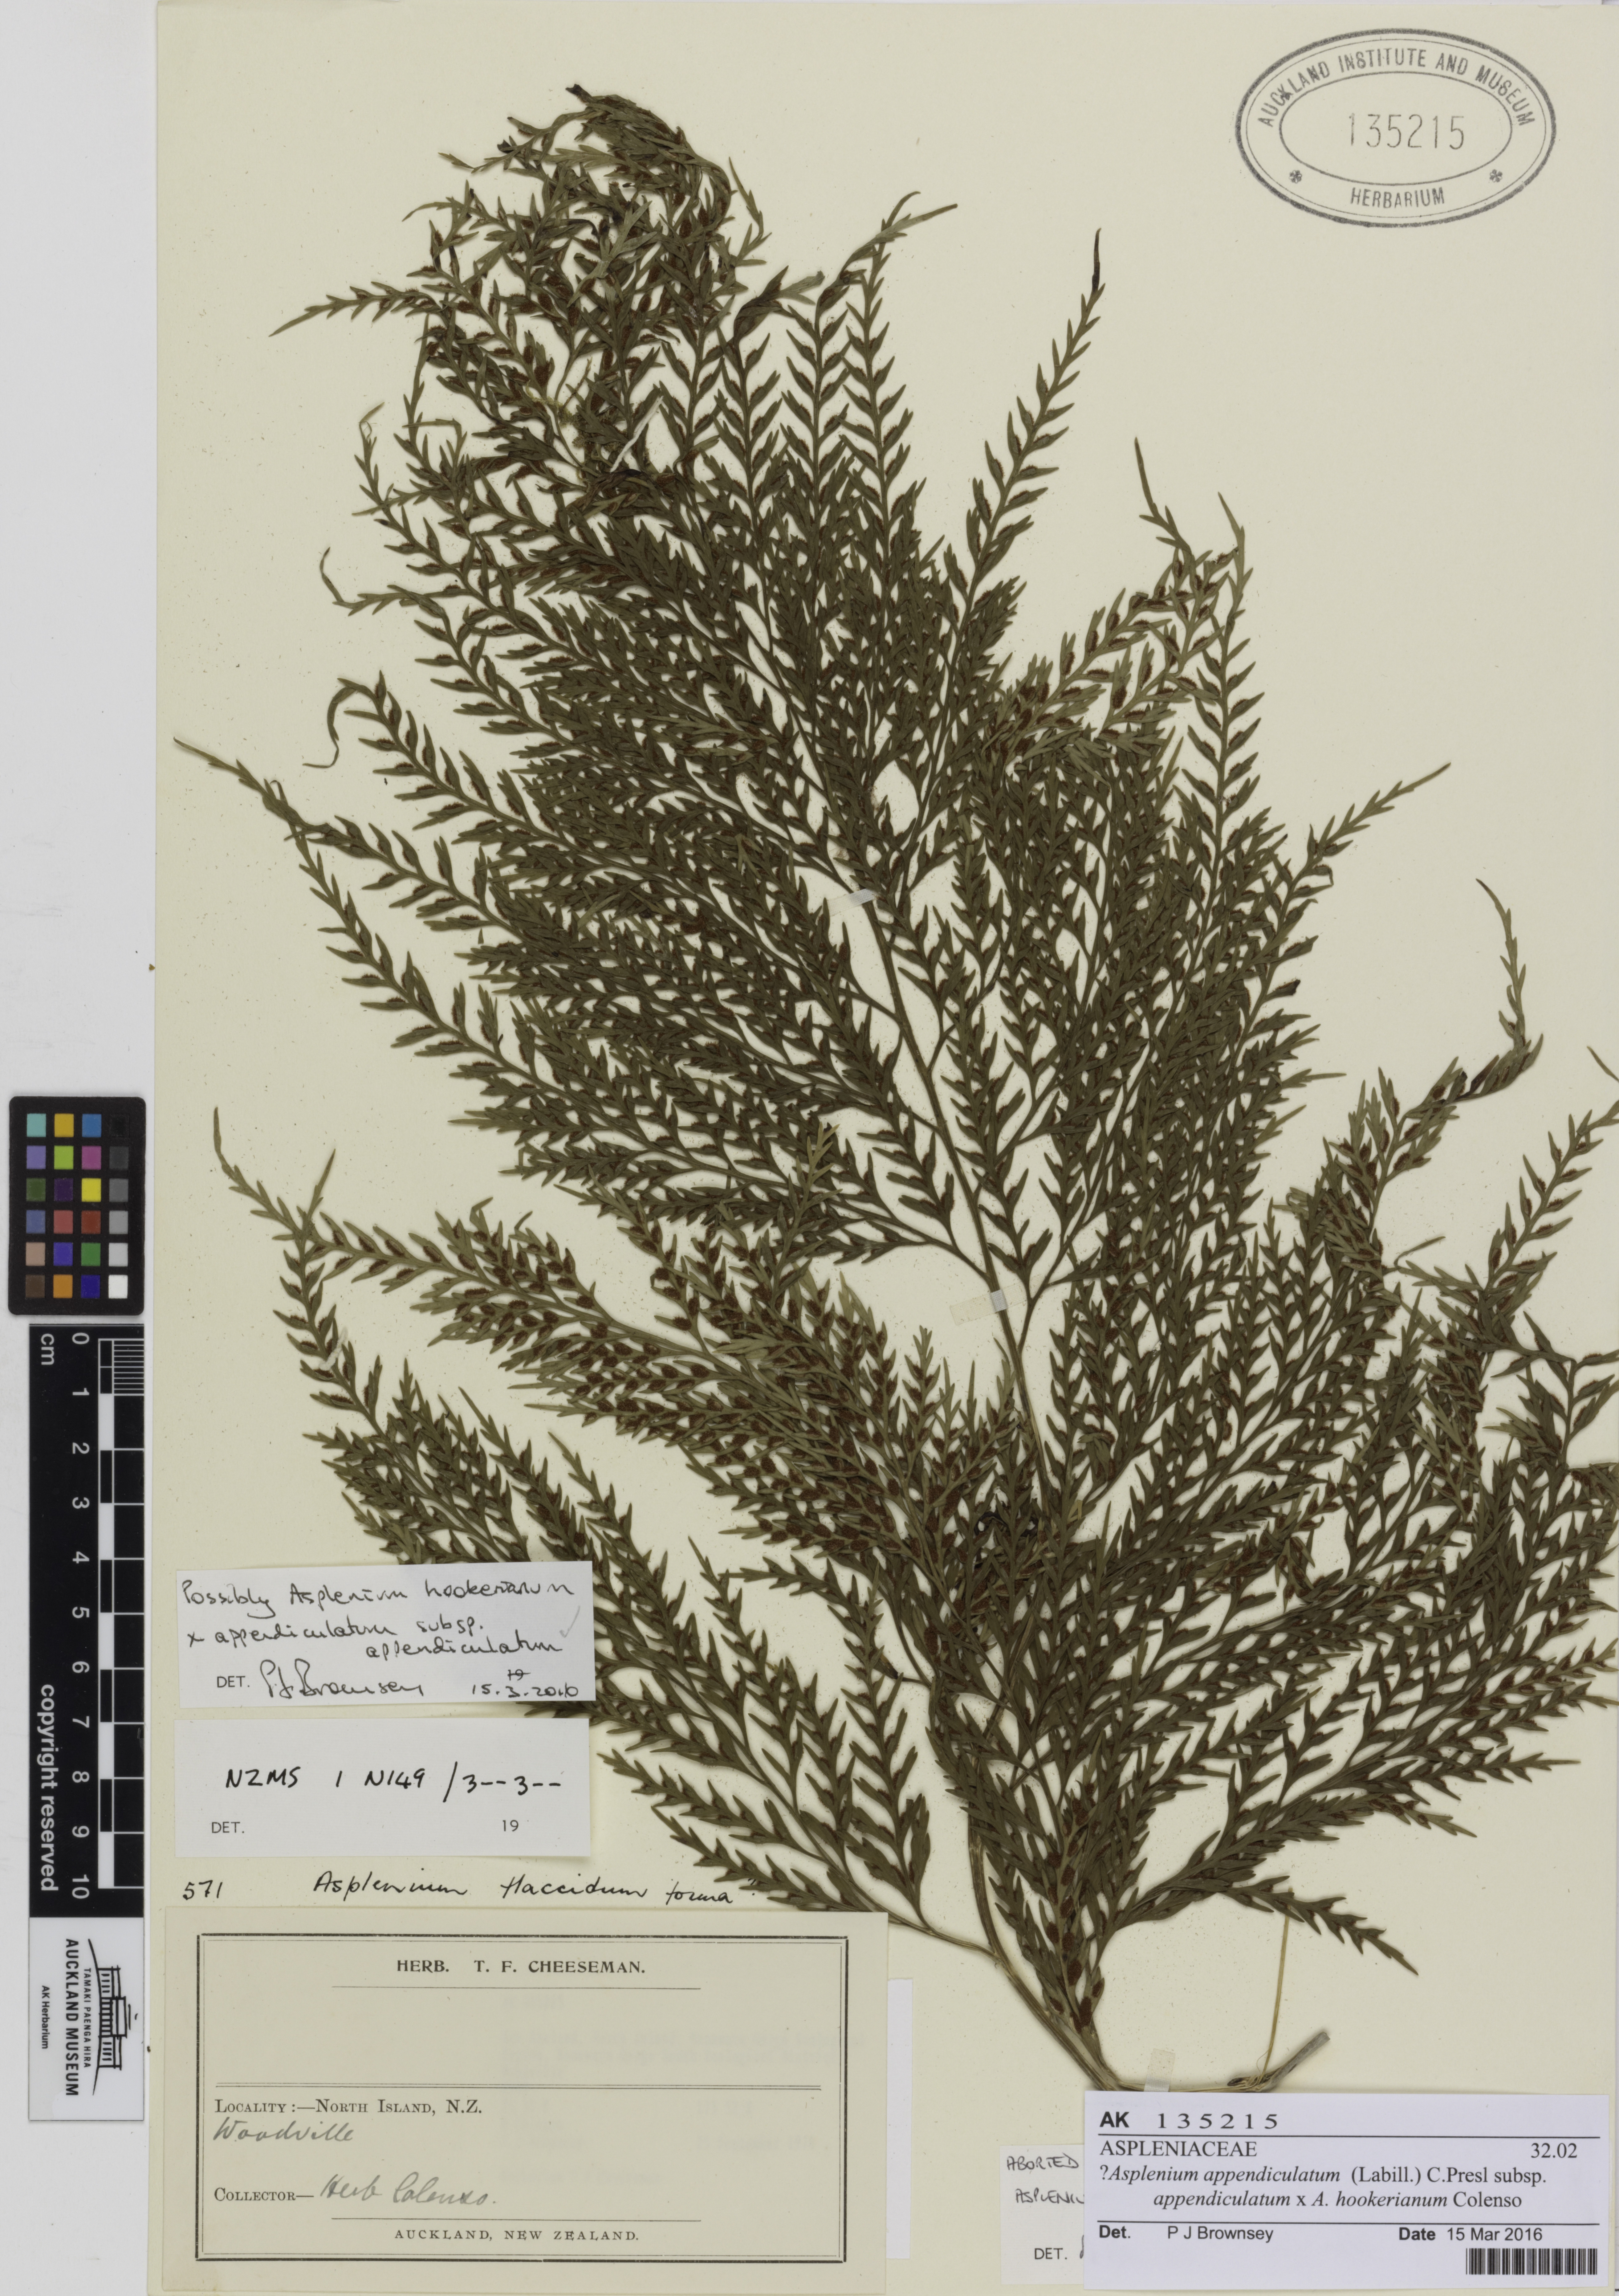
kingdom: Plantae
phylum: Tracheophyta
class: Polypodiopsida
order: Polypodiales
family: Aspleniaceae
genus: Asplenium
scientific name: Asplenium
